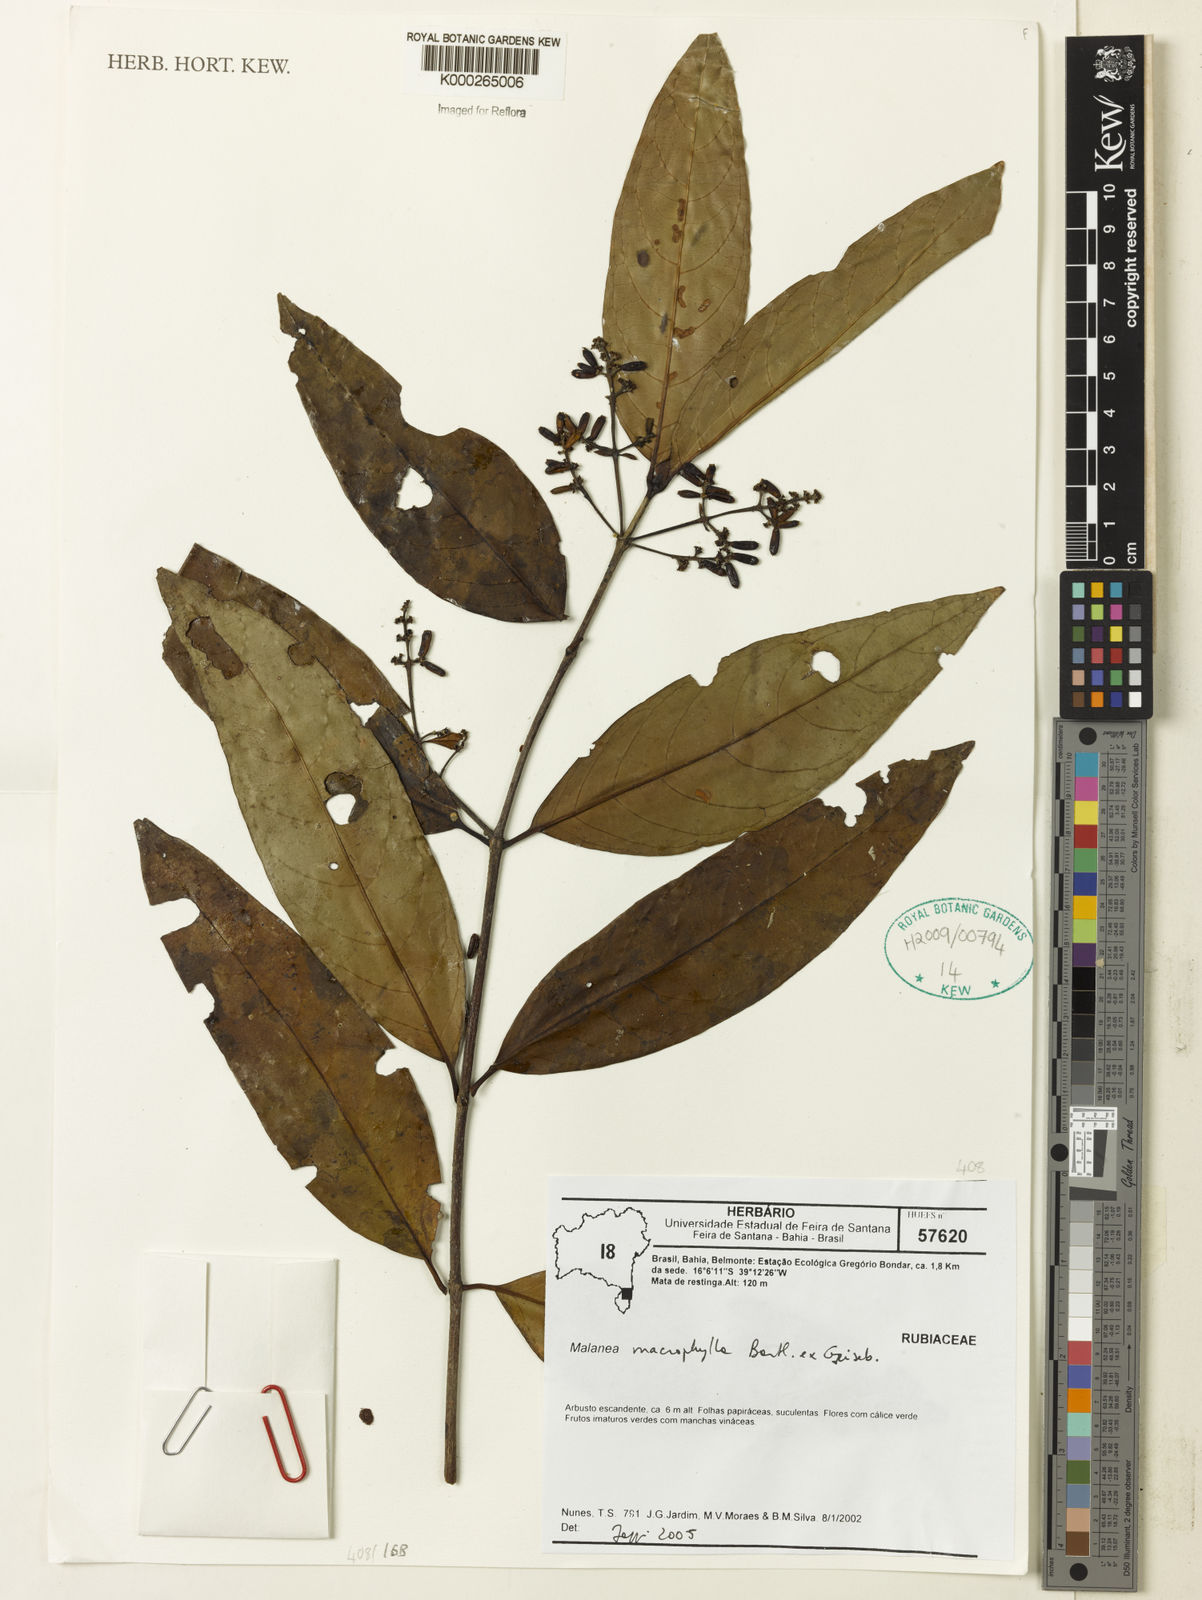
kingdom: Plantae
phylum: Tracheophyta
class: Magnoliopsida
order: Gentianales
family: Rubiaceae
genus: Malanea
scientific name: Malanea
